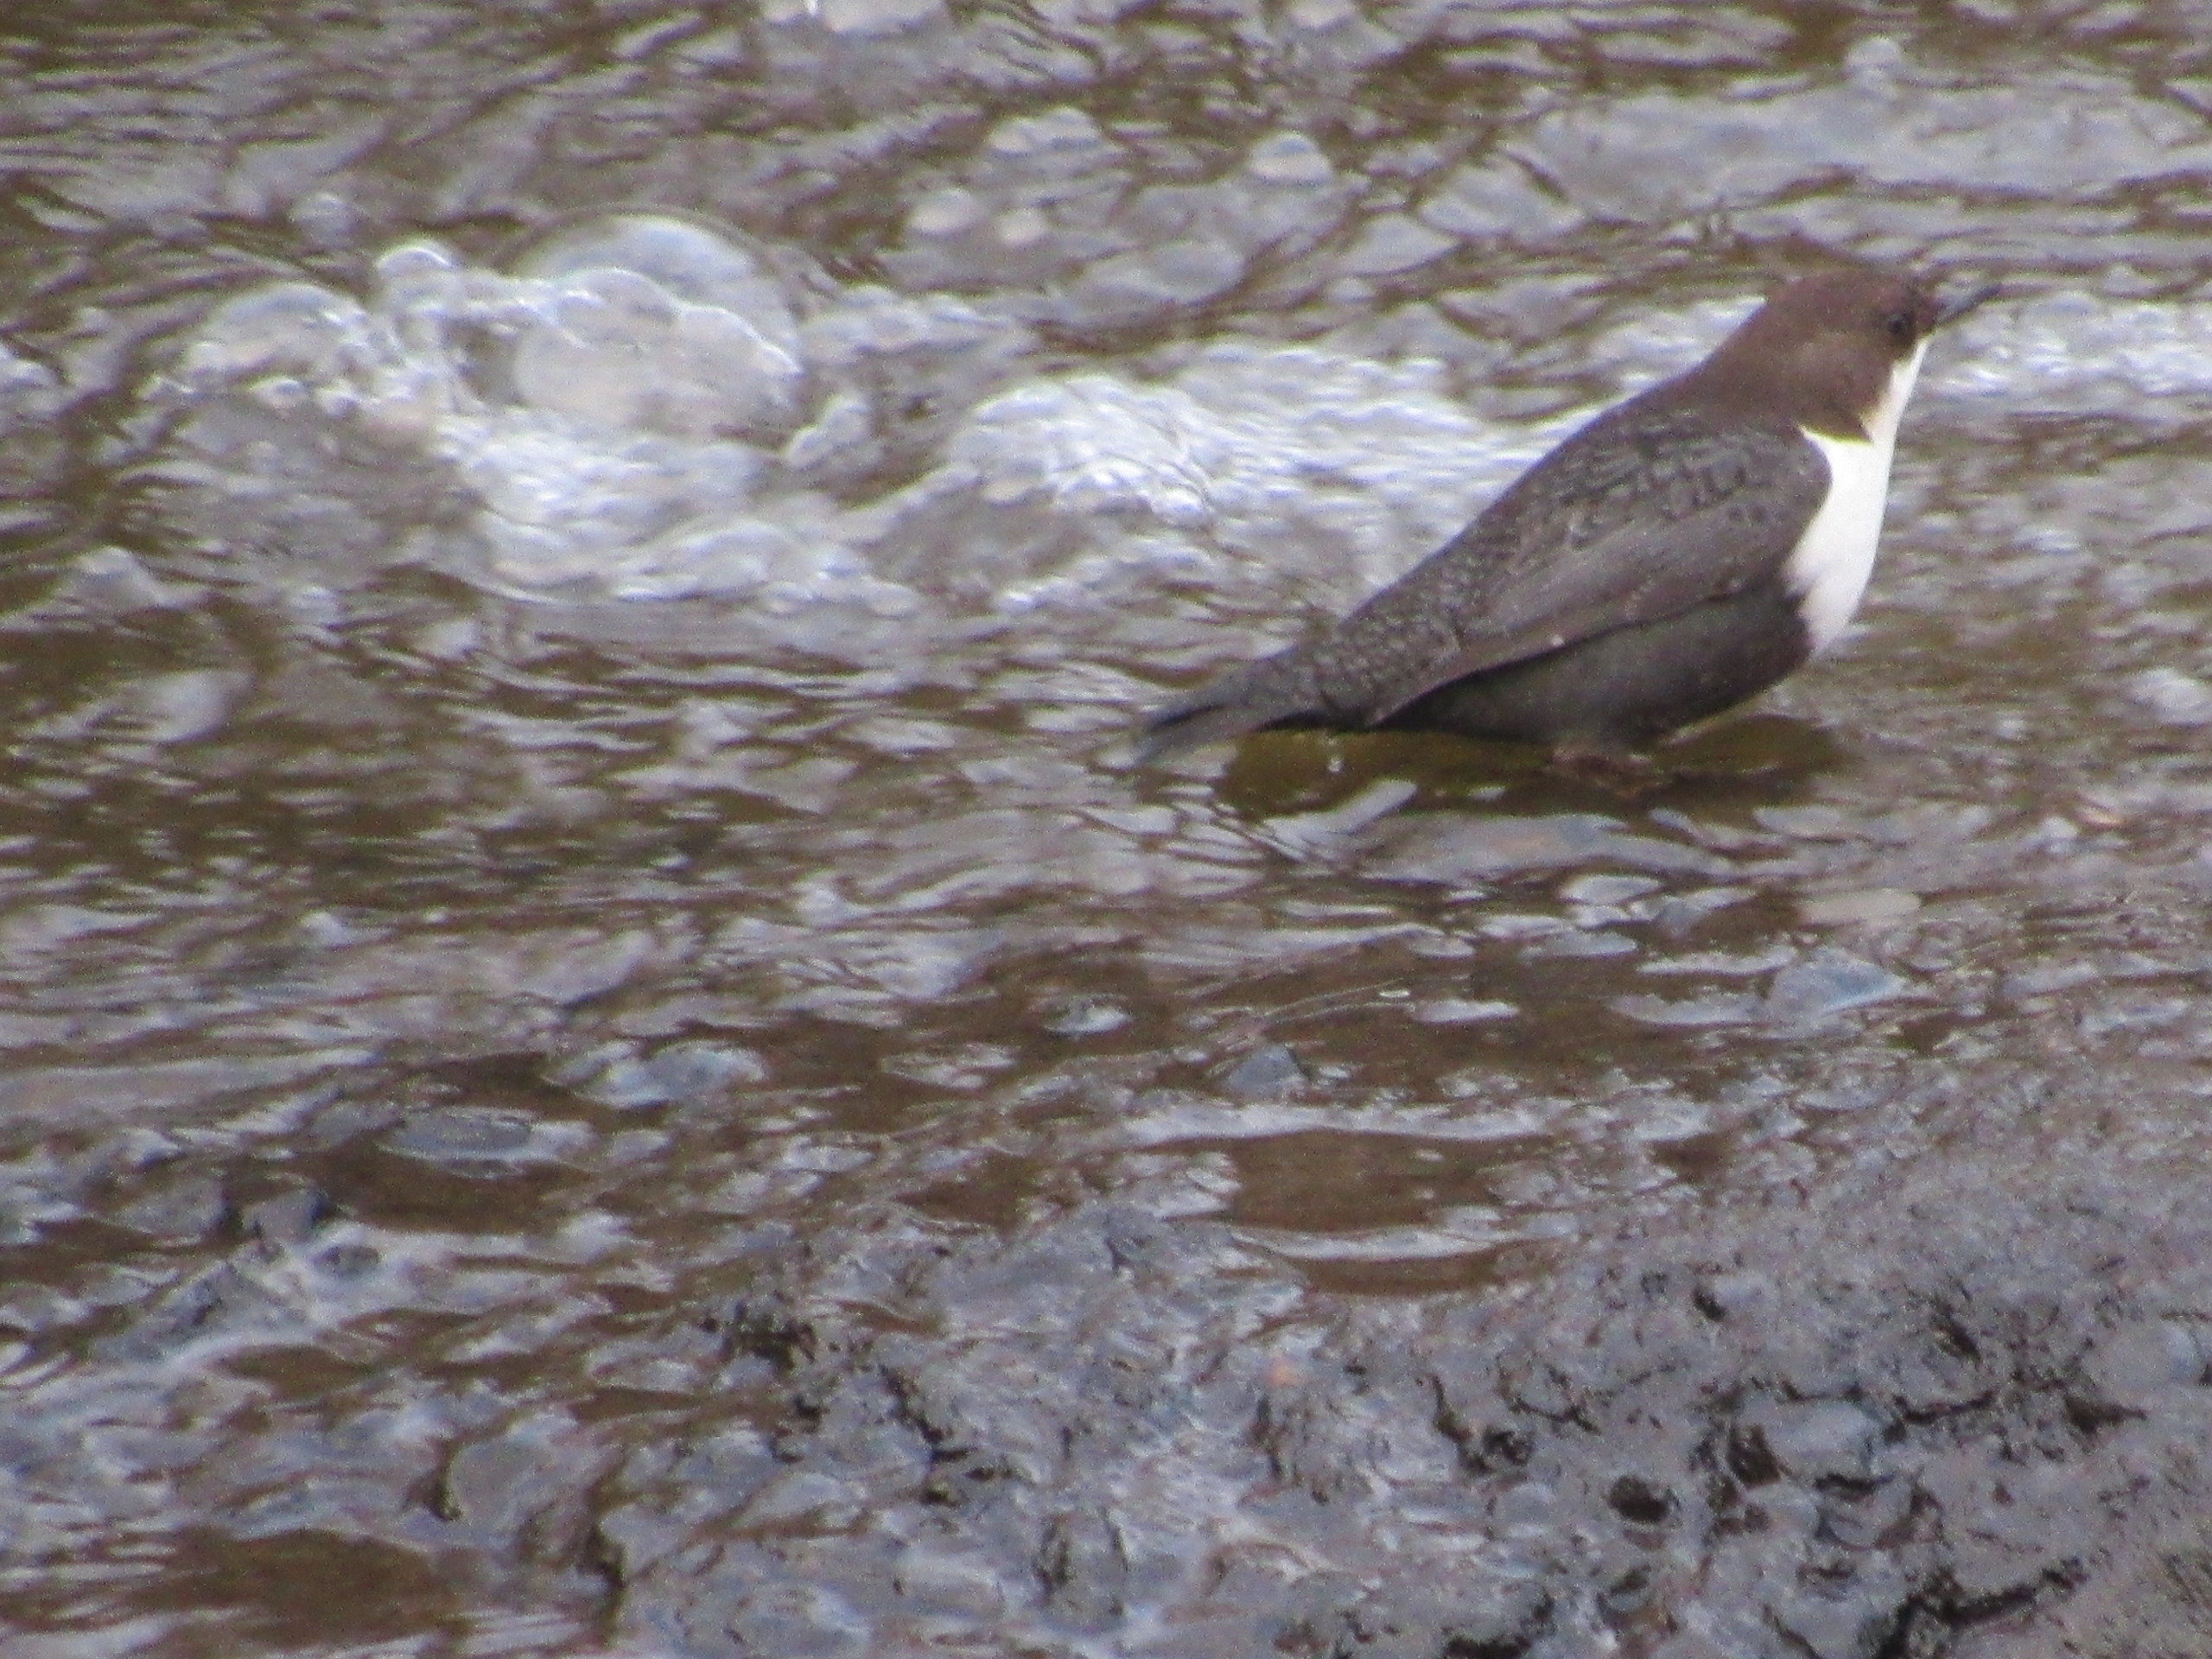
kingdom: Animalia
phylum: Chordata
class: Aves
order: Passeriformes
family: Cinclidae
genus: Cinclus
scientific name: Cinclus cinclus
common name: Vandstær
